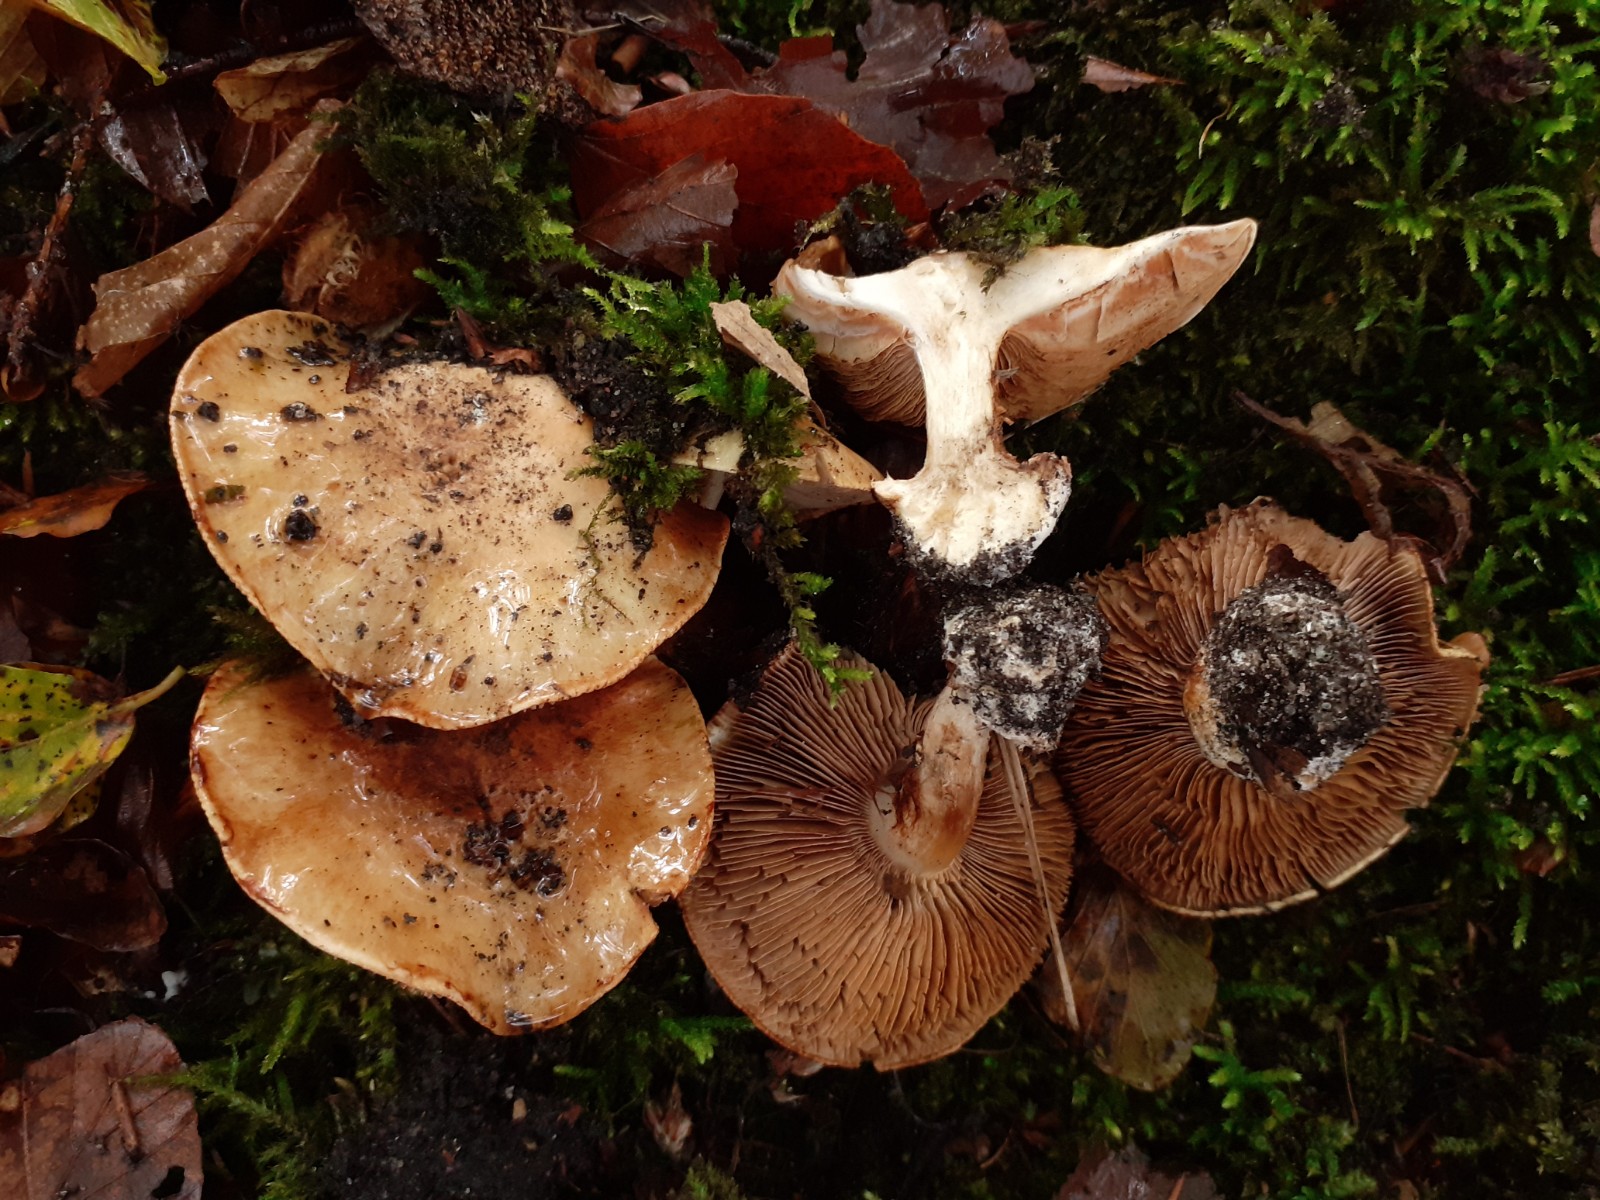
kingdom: Fungi
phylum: Basidiomycota
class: Agaricomycetes
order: Agaricales
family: Cortinariaceae
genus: Calonarius
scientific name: Calonarius lilacinovelatus
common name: violetknoldet slørhat
